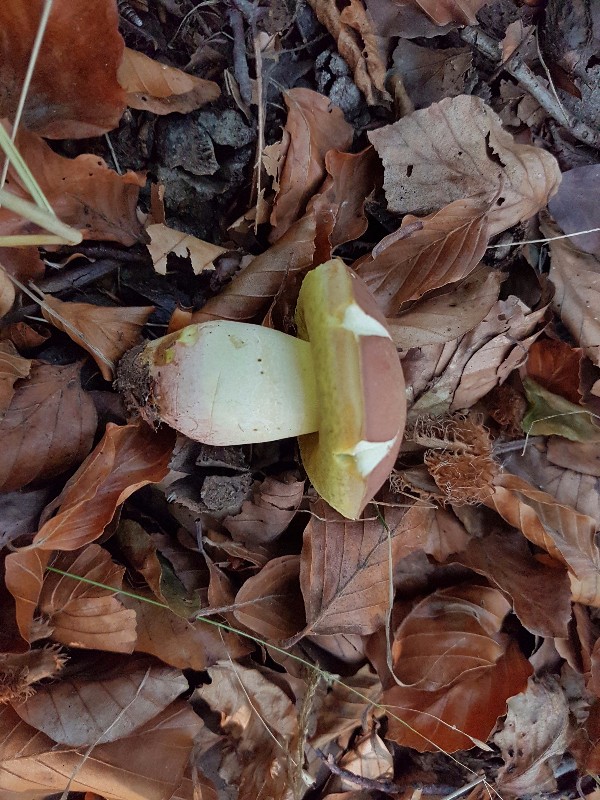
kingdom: Fungi
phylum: Basidiomycota
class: Agaricomycetes
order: Boletales
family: Boletaceae
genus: Butyriboletus
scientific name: Butyriboletus fuscoroseus
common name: brunrosa rørhat
